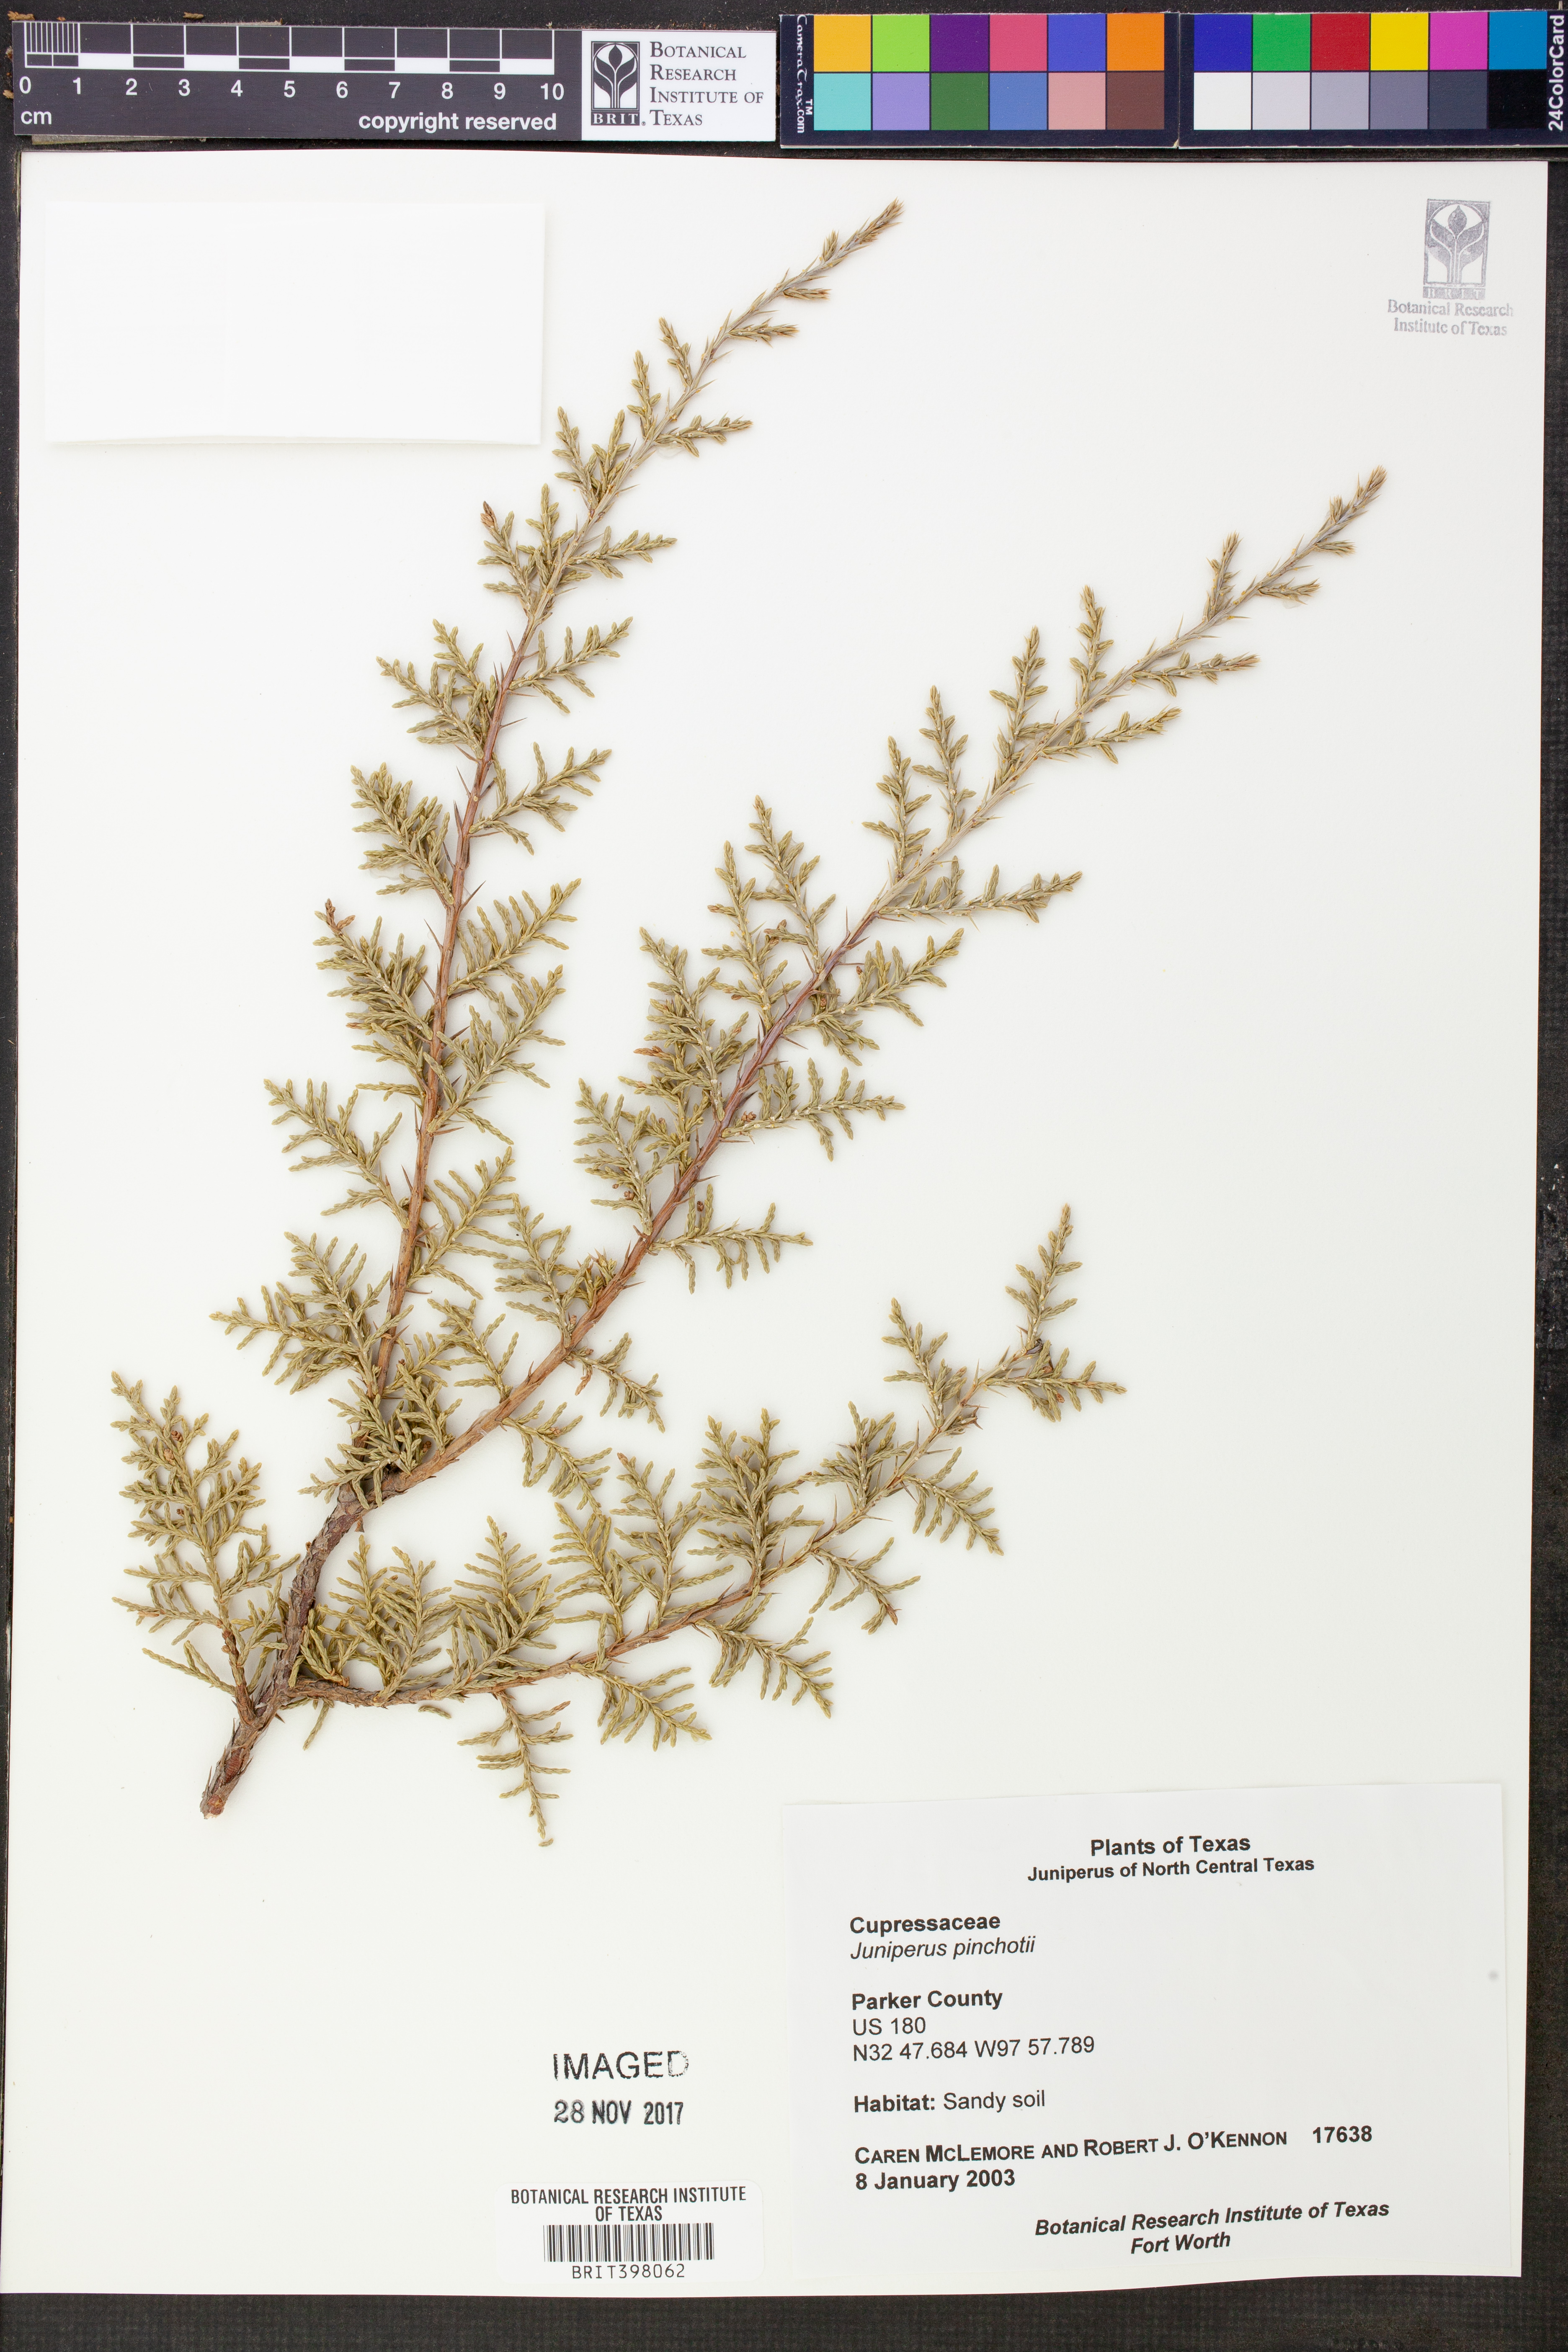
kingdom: Plantae
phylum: Tracheophyta
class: Pinopsida
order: Pinales
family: Cupressaceae
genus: Juniperus
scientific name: Juniperus pinchotii
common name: Pinchot juniper
